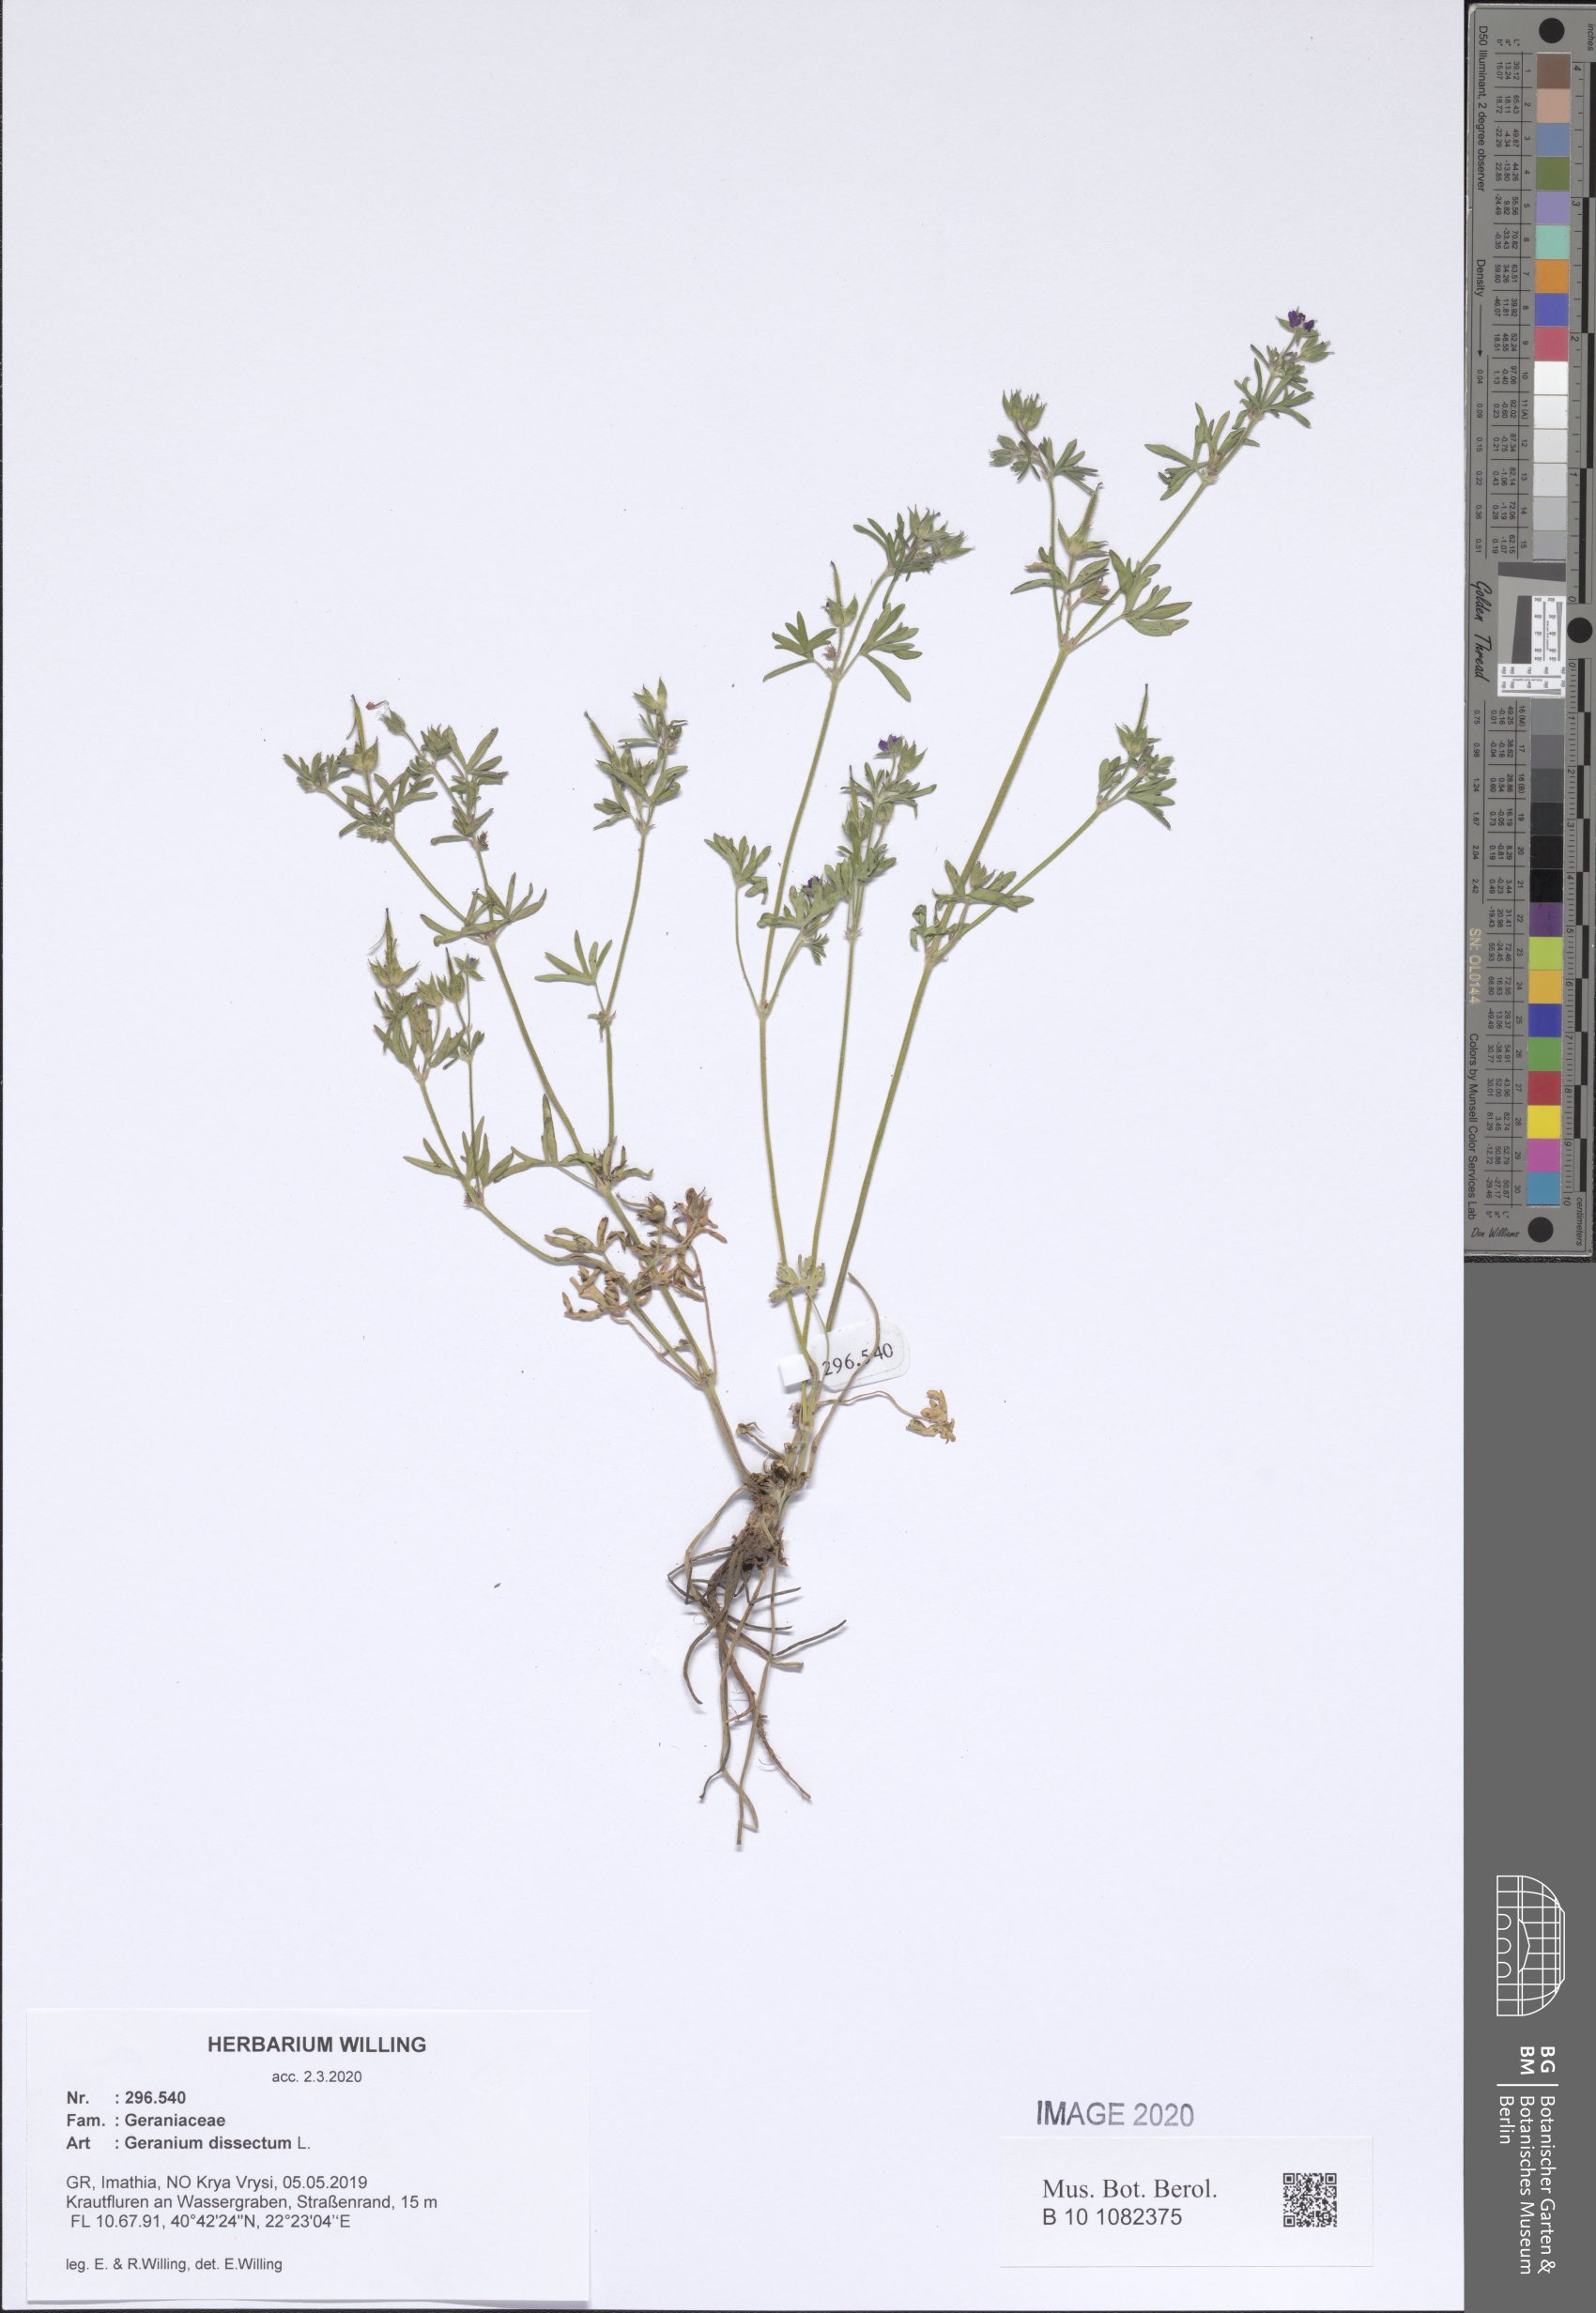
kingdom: Plantae
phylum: Tracheophyta
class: Magnoliopsida
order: Geraniales
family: Geraniaceae
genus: Geranium
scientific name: Geranium dissectum
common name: Cut-leaved crane's-bill
